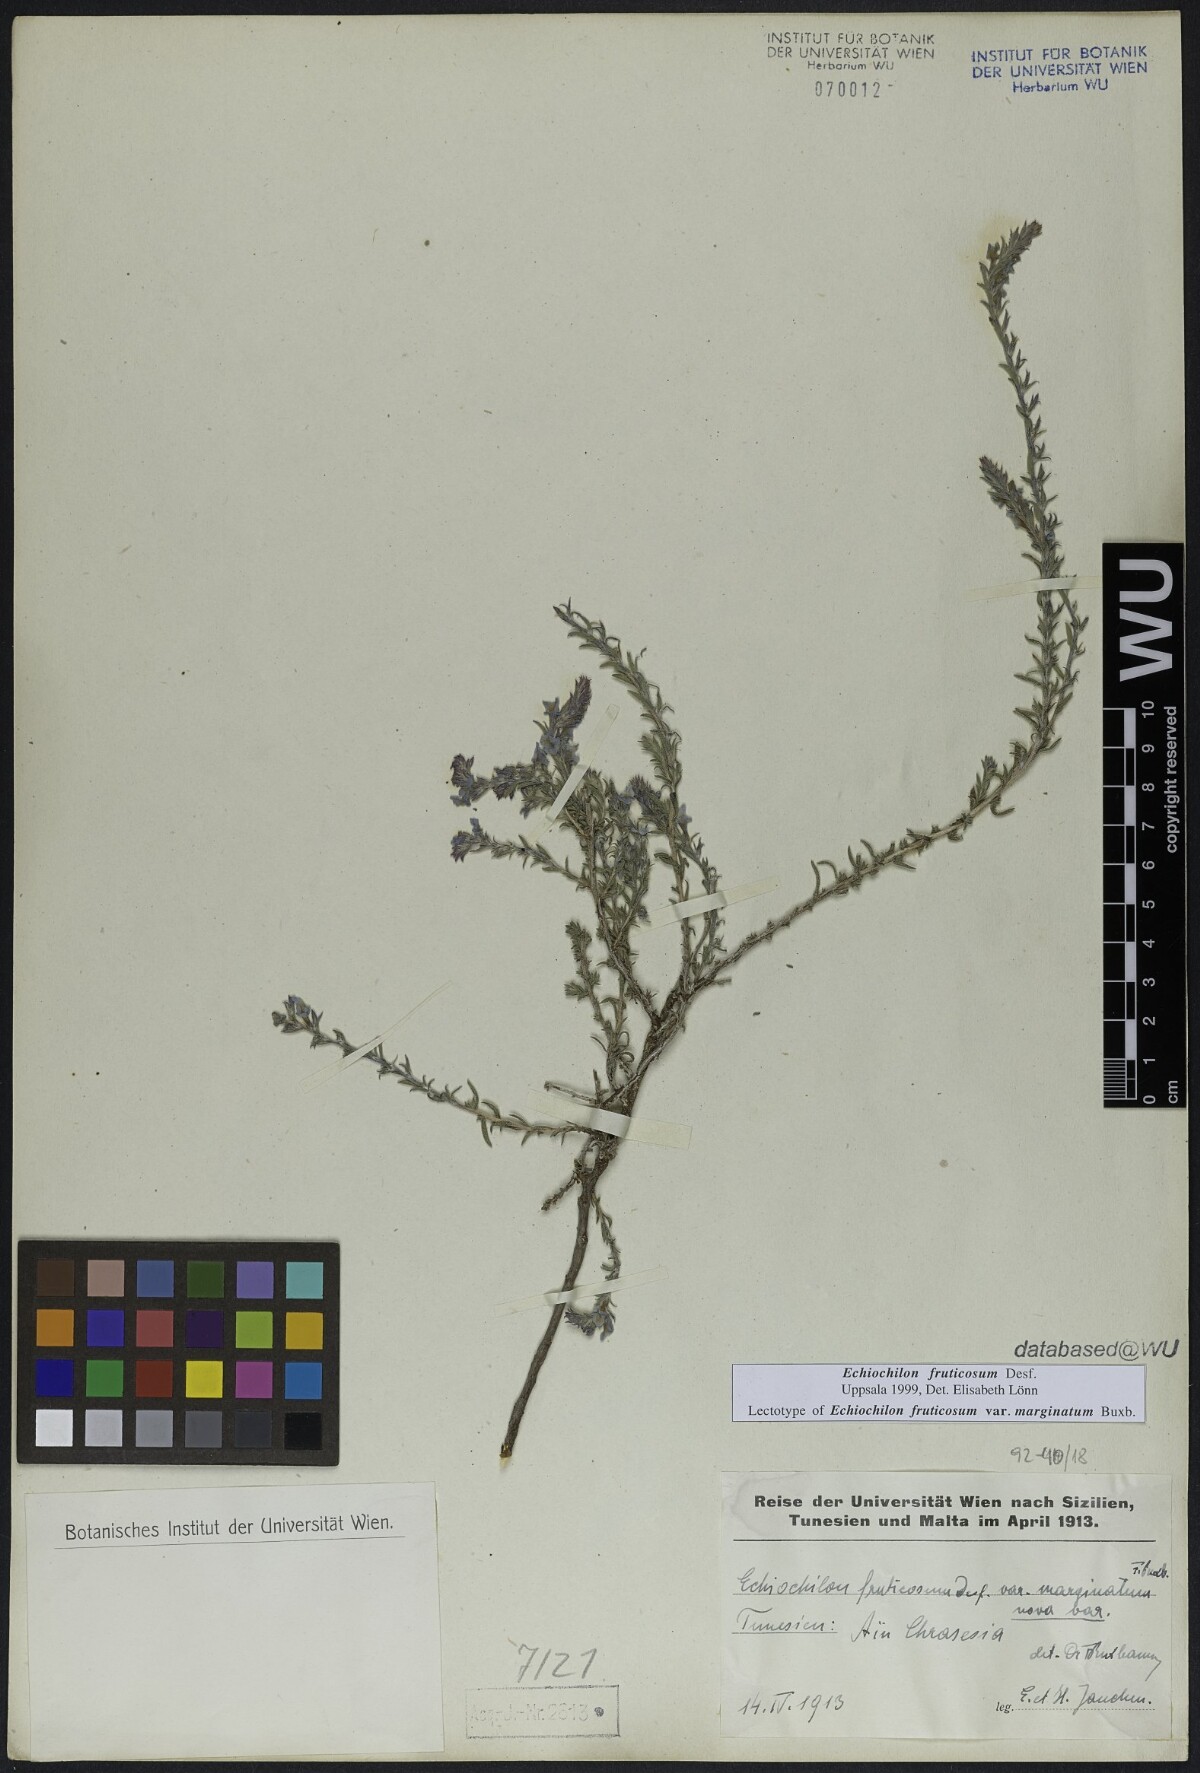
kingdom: Plantae
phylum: Tracheophyta
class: Magnoliopsida
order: Boraginales
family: Boraginaceae
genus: Echiochilon
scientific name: Echiochilon fruticosum
